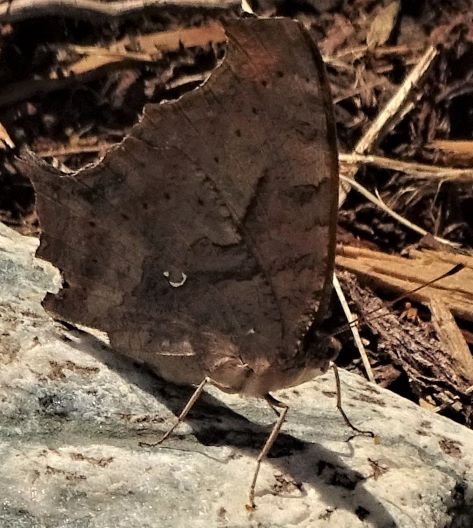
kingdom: Animalia
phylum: Arthropoda
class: Insecta
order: Lepidoptera
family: Nymphalidae
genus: Polygonia
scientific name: Polygonia interrogationis
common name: Question Mark
